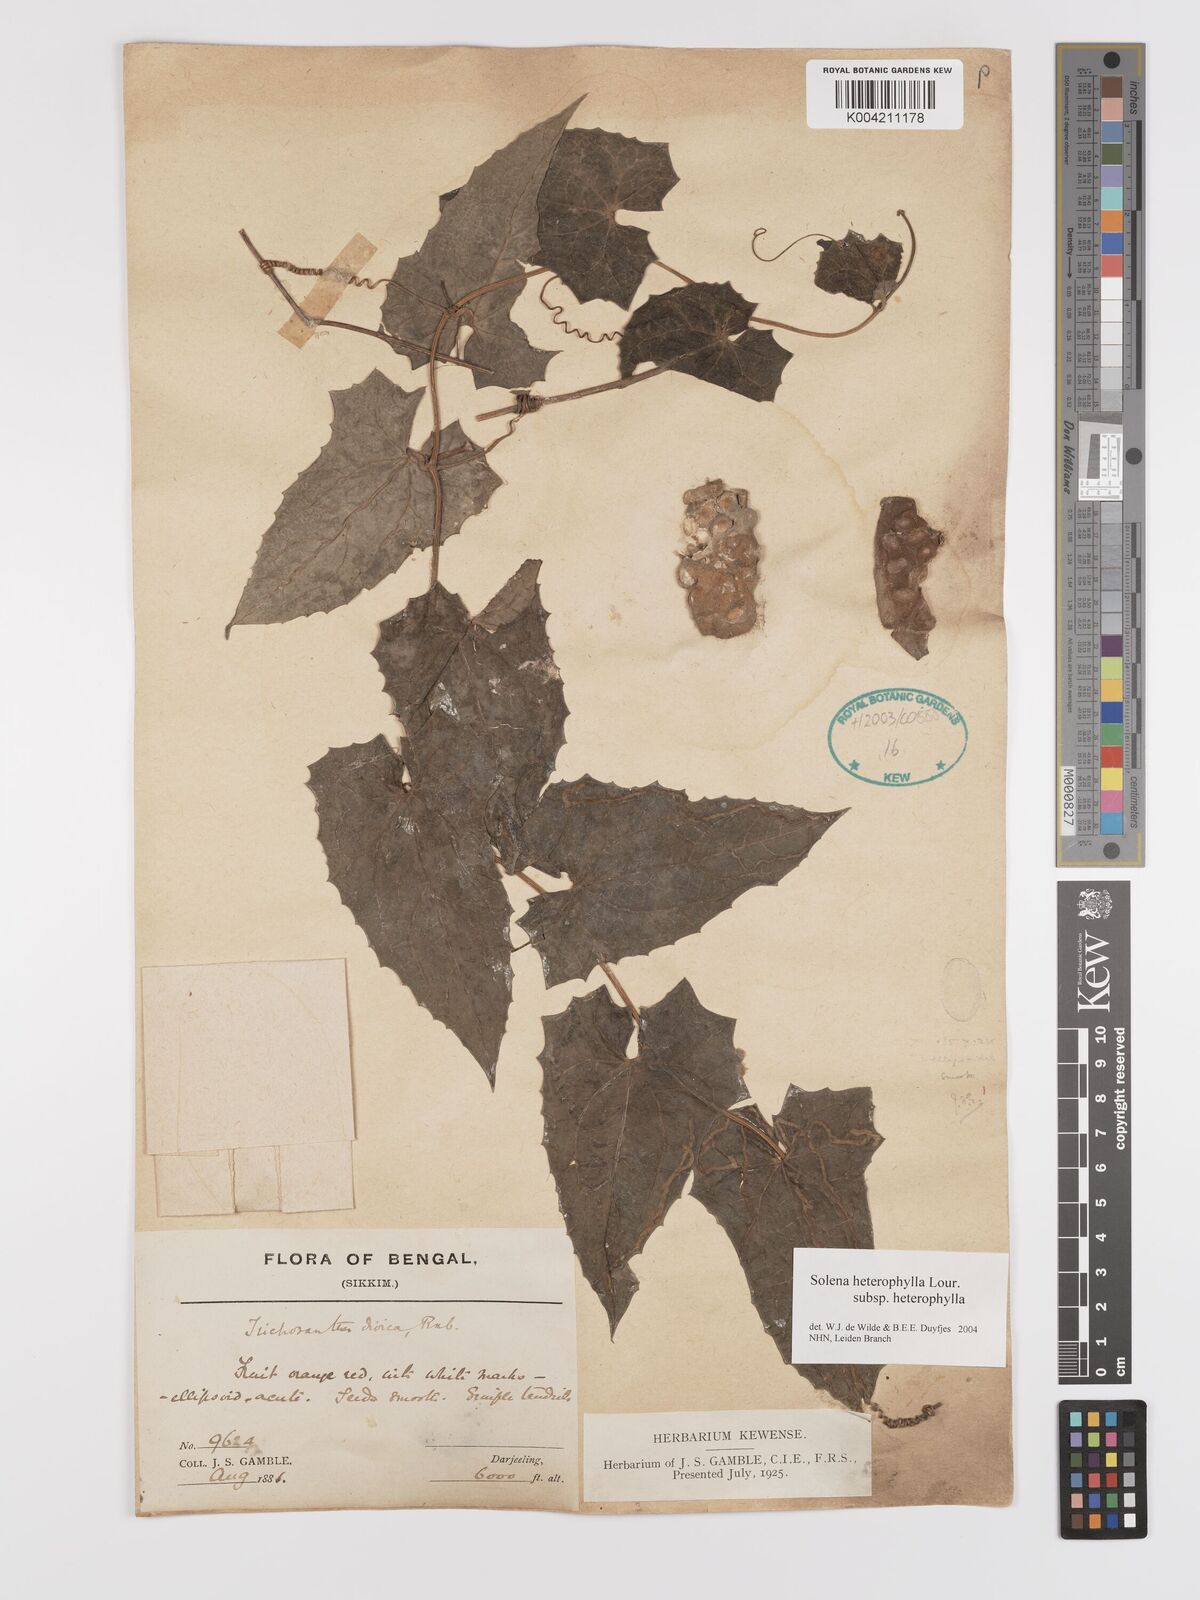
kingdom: Plantae
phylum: Tracheophyta
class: Magnoliopsida
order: Cucurbitales
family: Cucurbitaceae
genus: Solena
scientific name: Solena amplexicaulis
